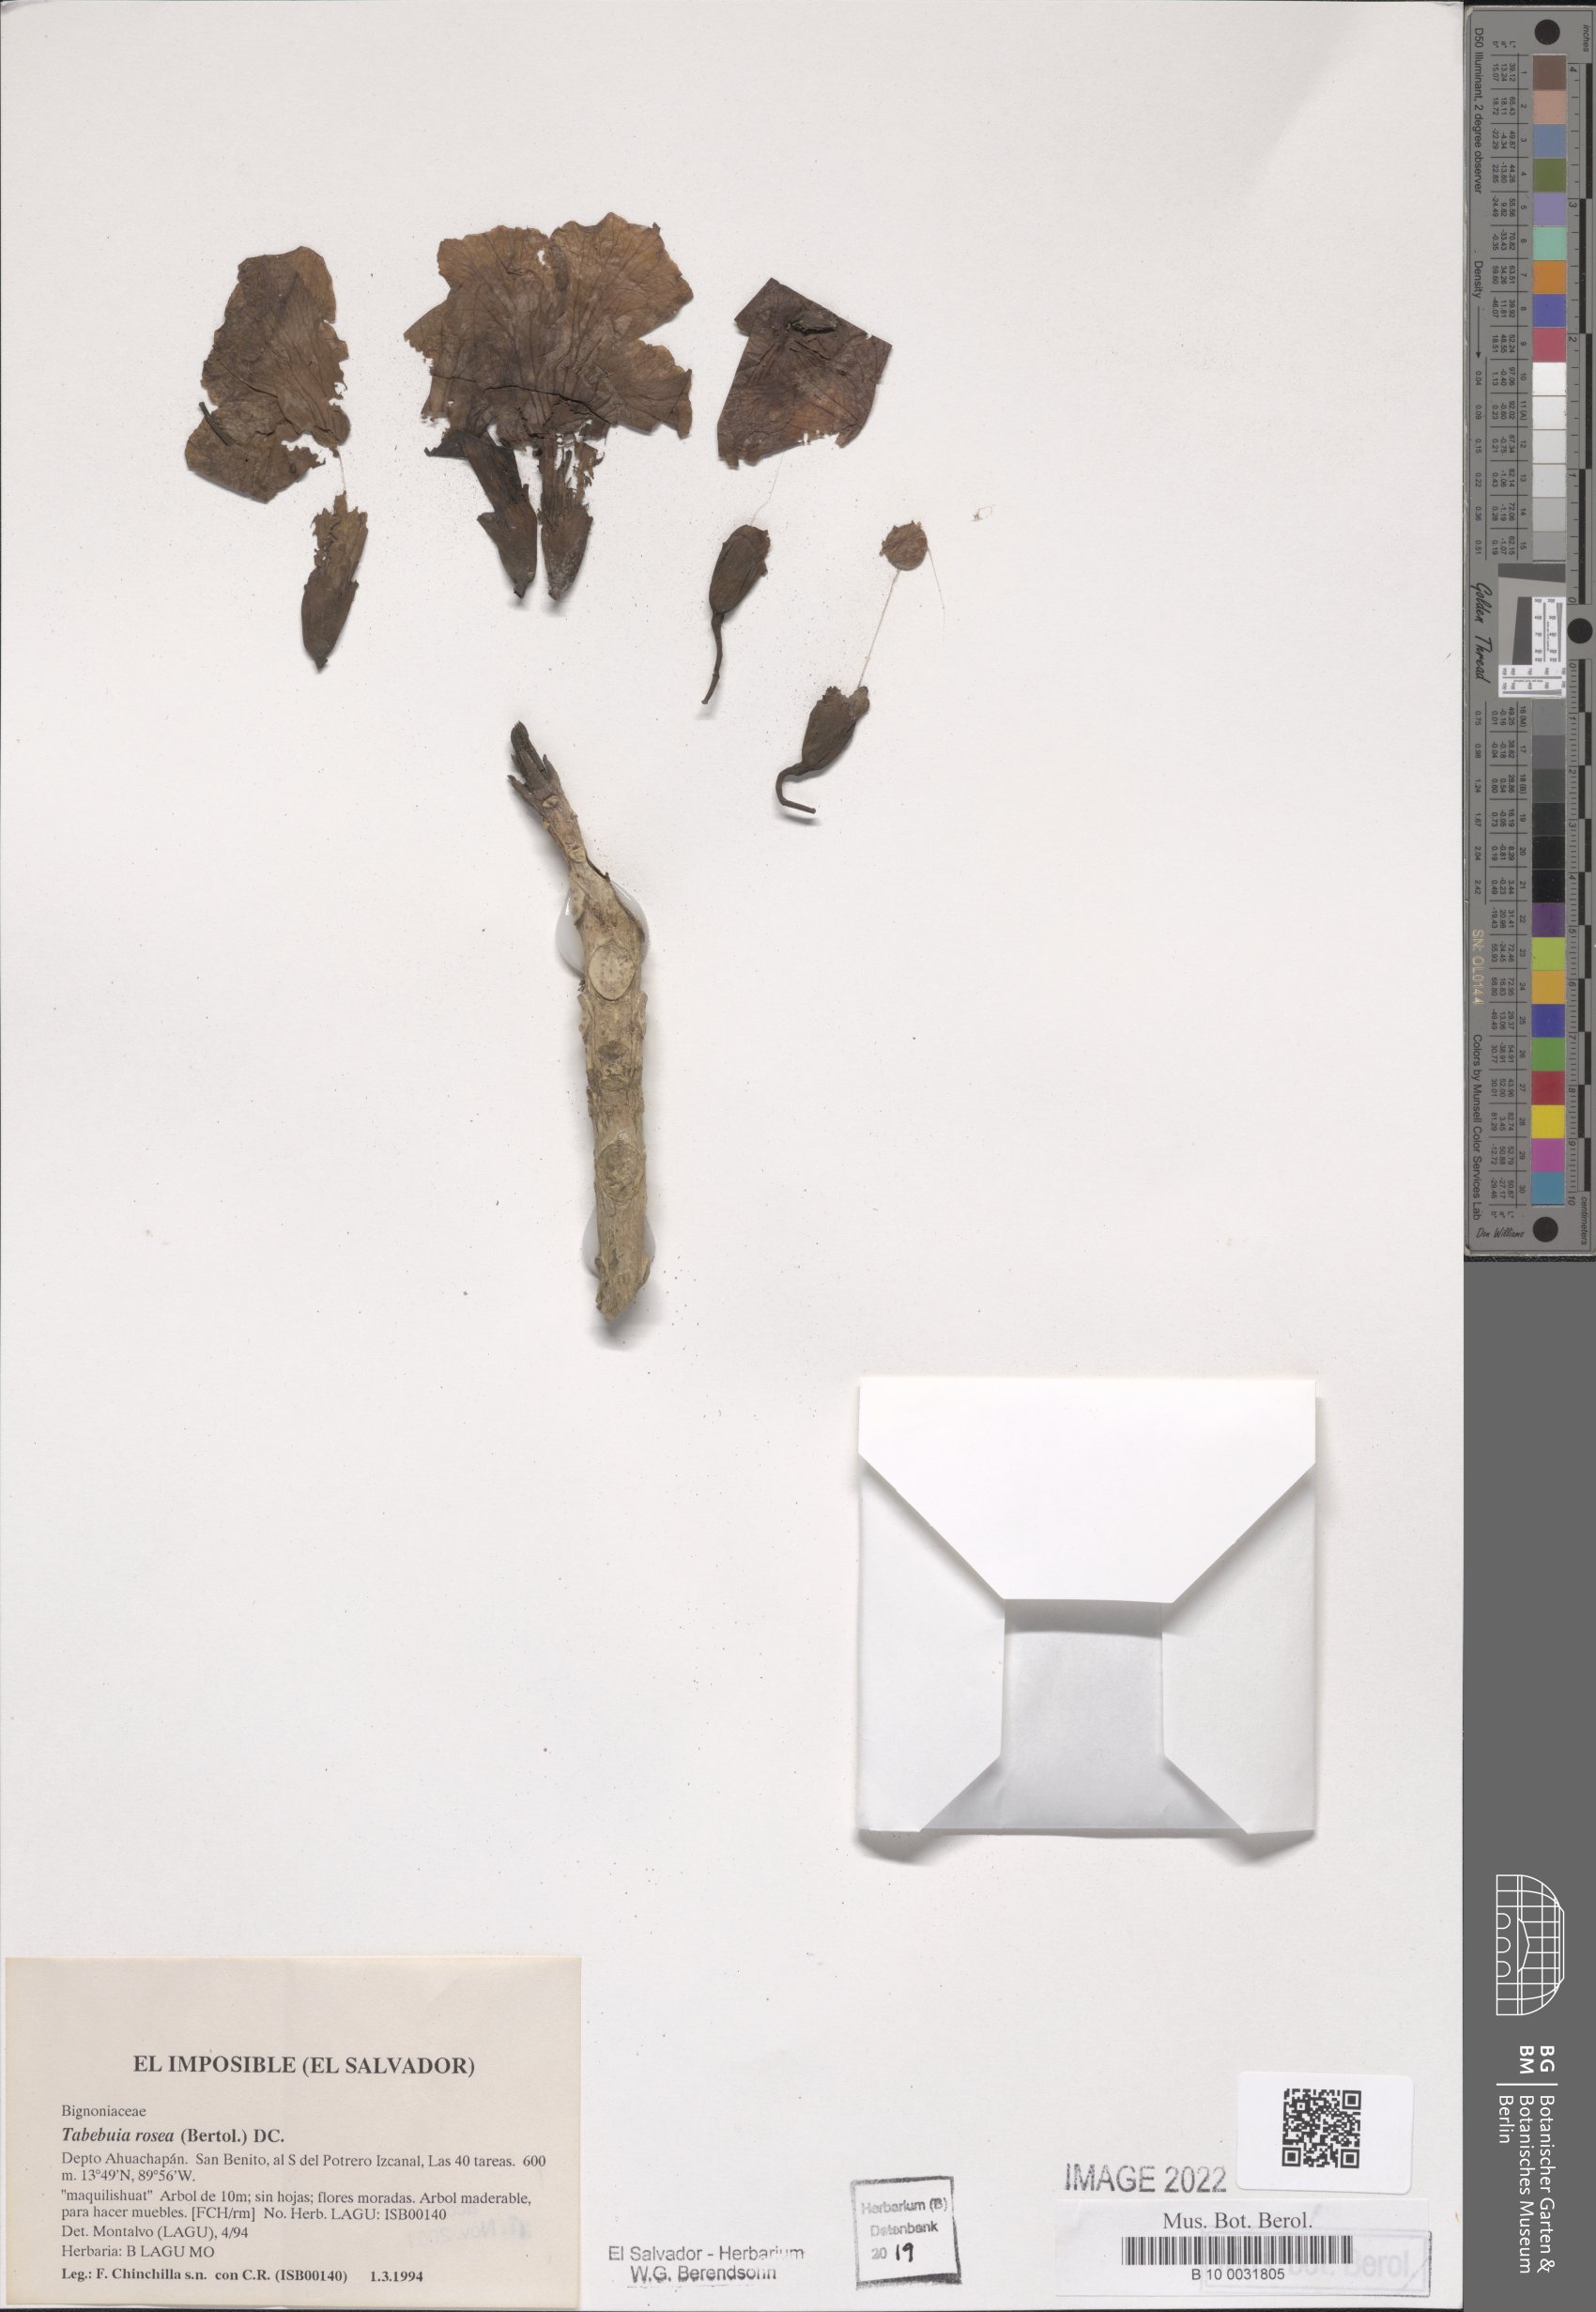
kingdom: Plantae
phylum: Tracheophyta
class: Magnoliopsida
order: Lamiales
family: Bignoniaceae
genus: Tabebuia
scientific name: Tabebuia rosea
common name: Pink poui
